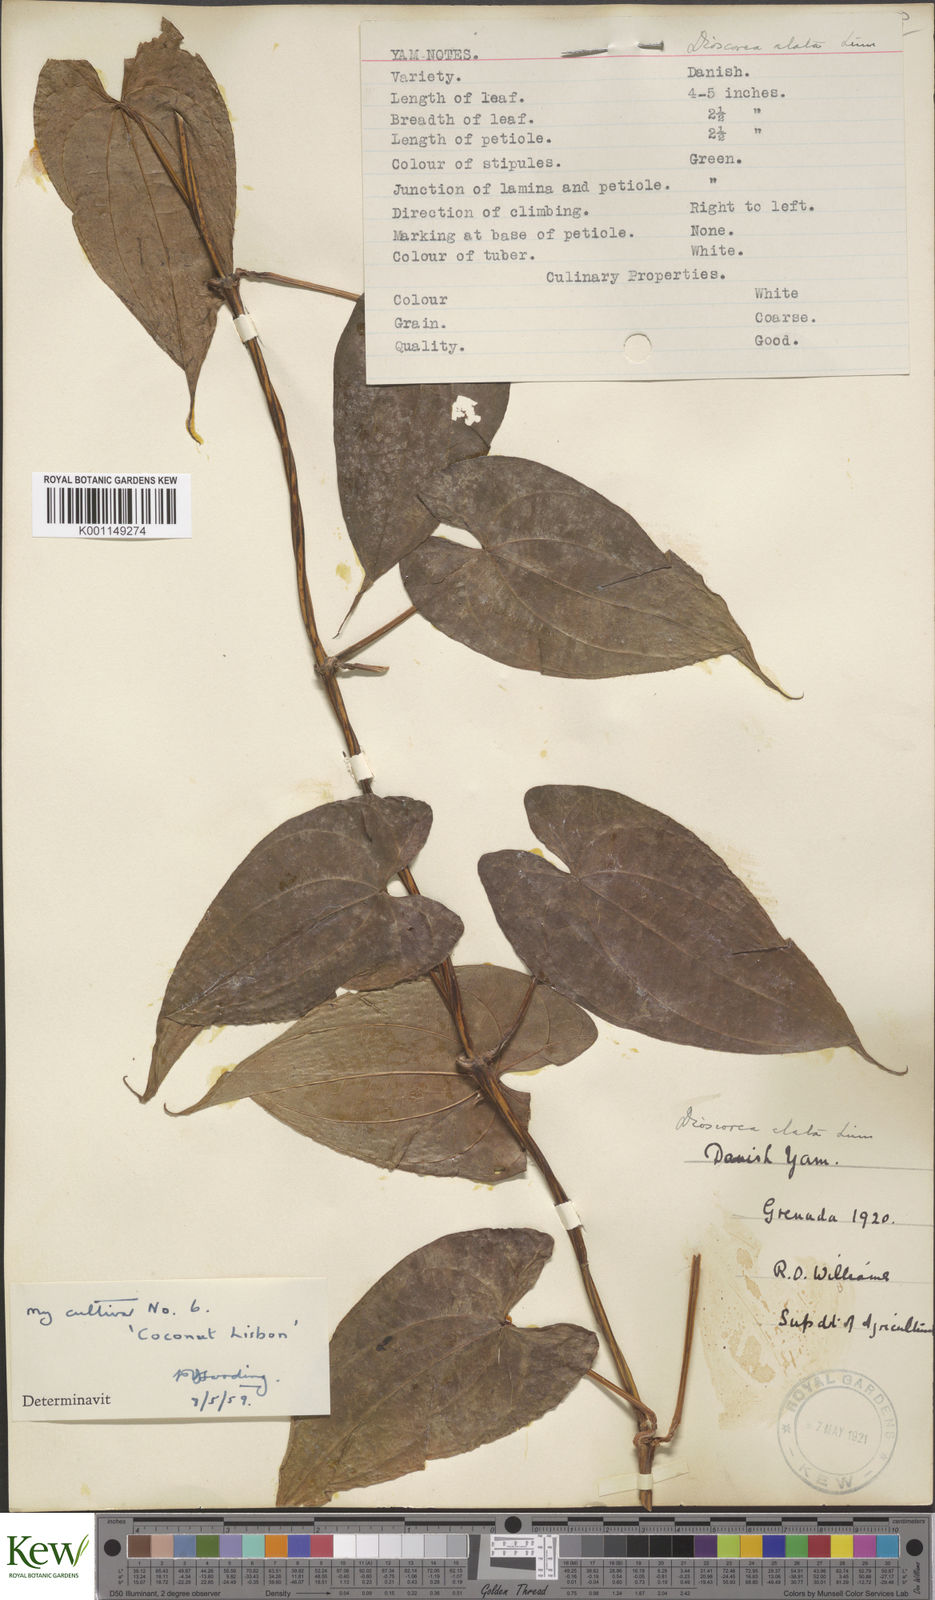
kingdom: Plantae
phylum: Tracheophyta
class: Liliopsida
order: Dioscoreales
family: Dioscoreaceae
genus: Dioscorea
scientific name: Dioscorea alata
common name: Water yam
